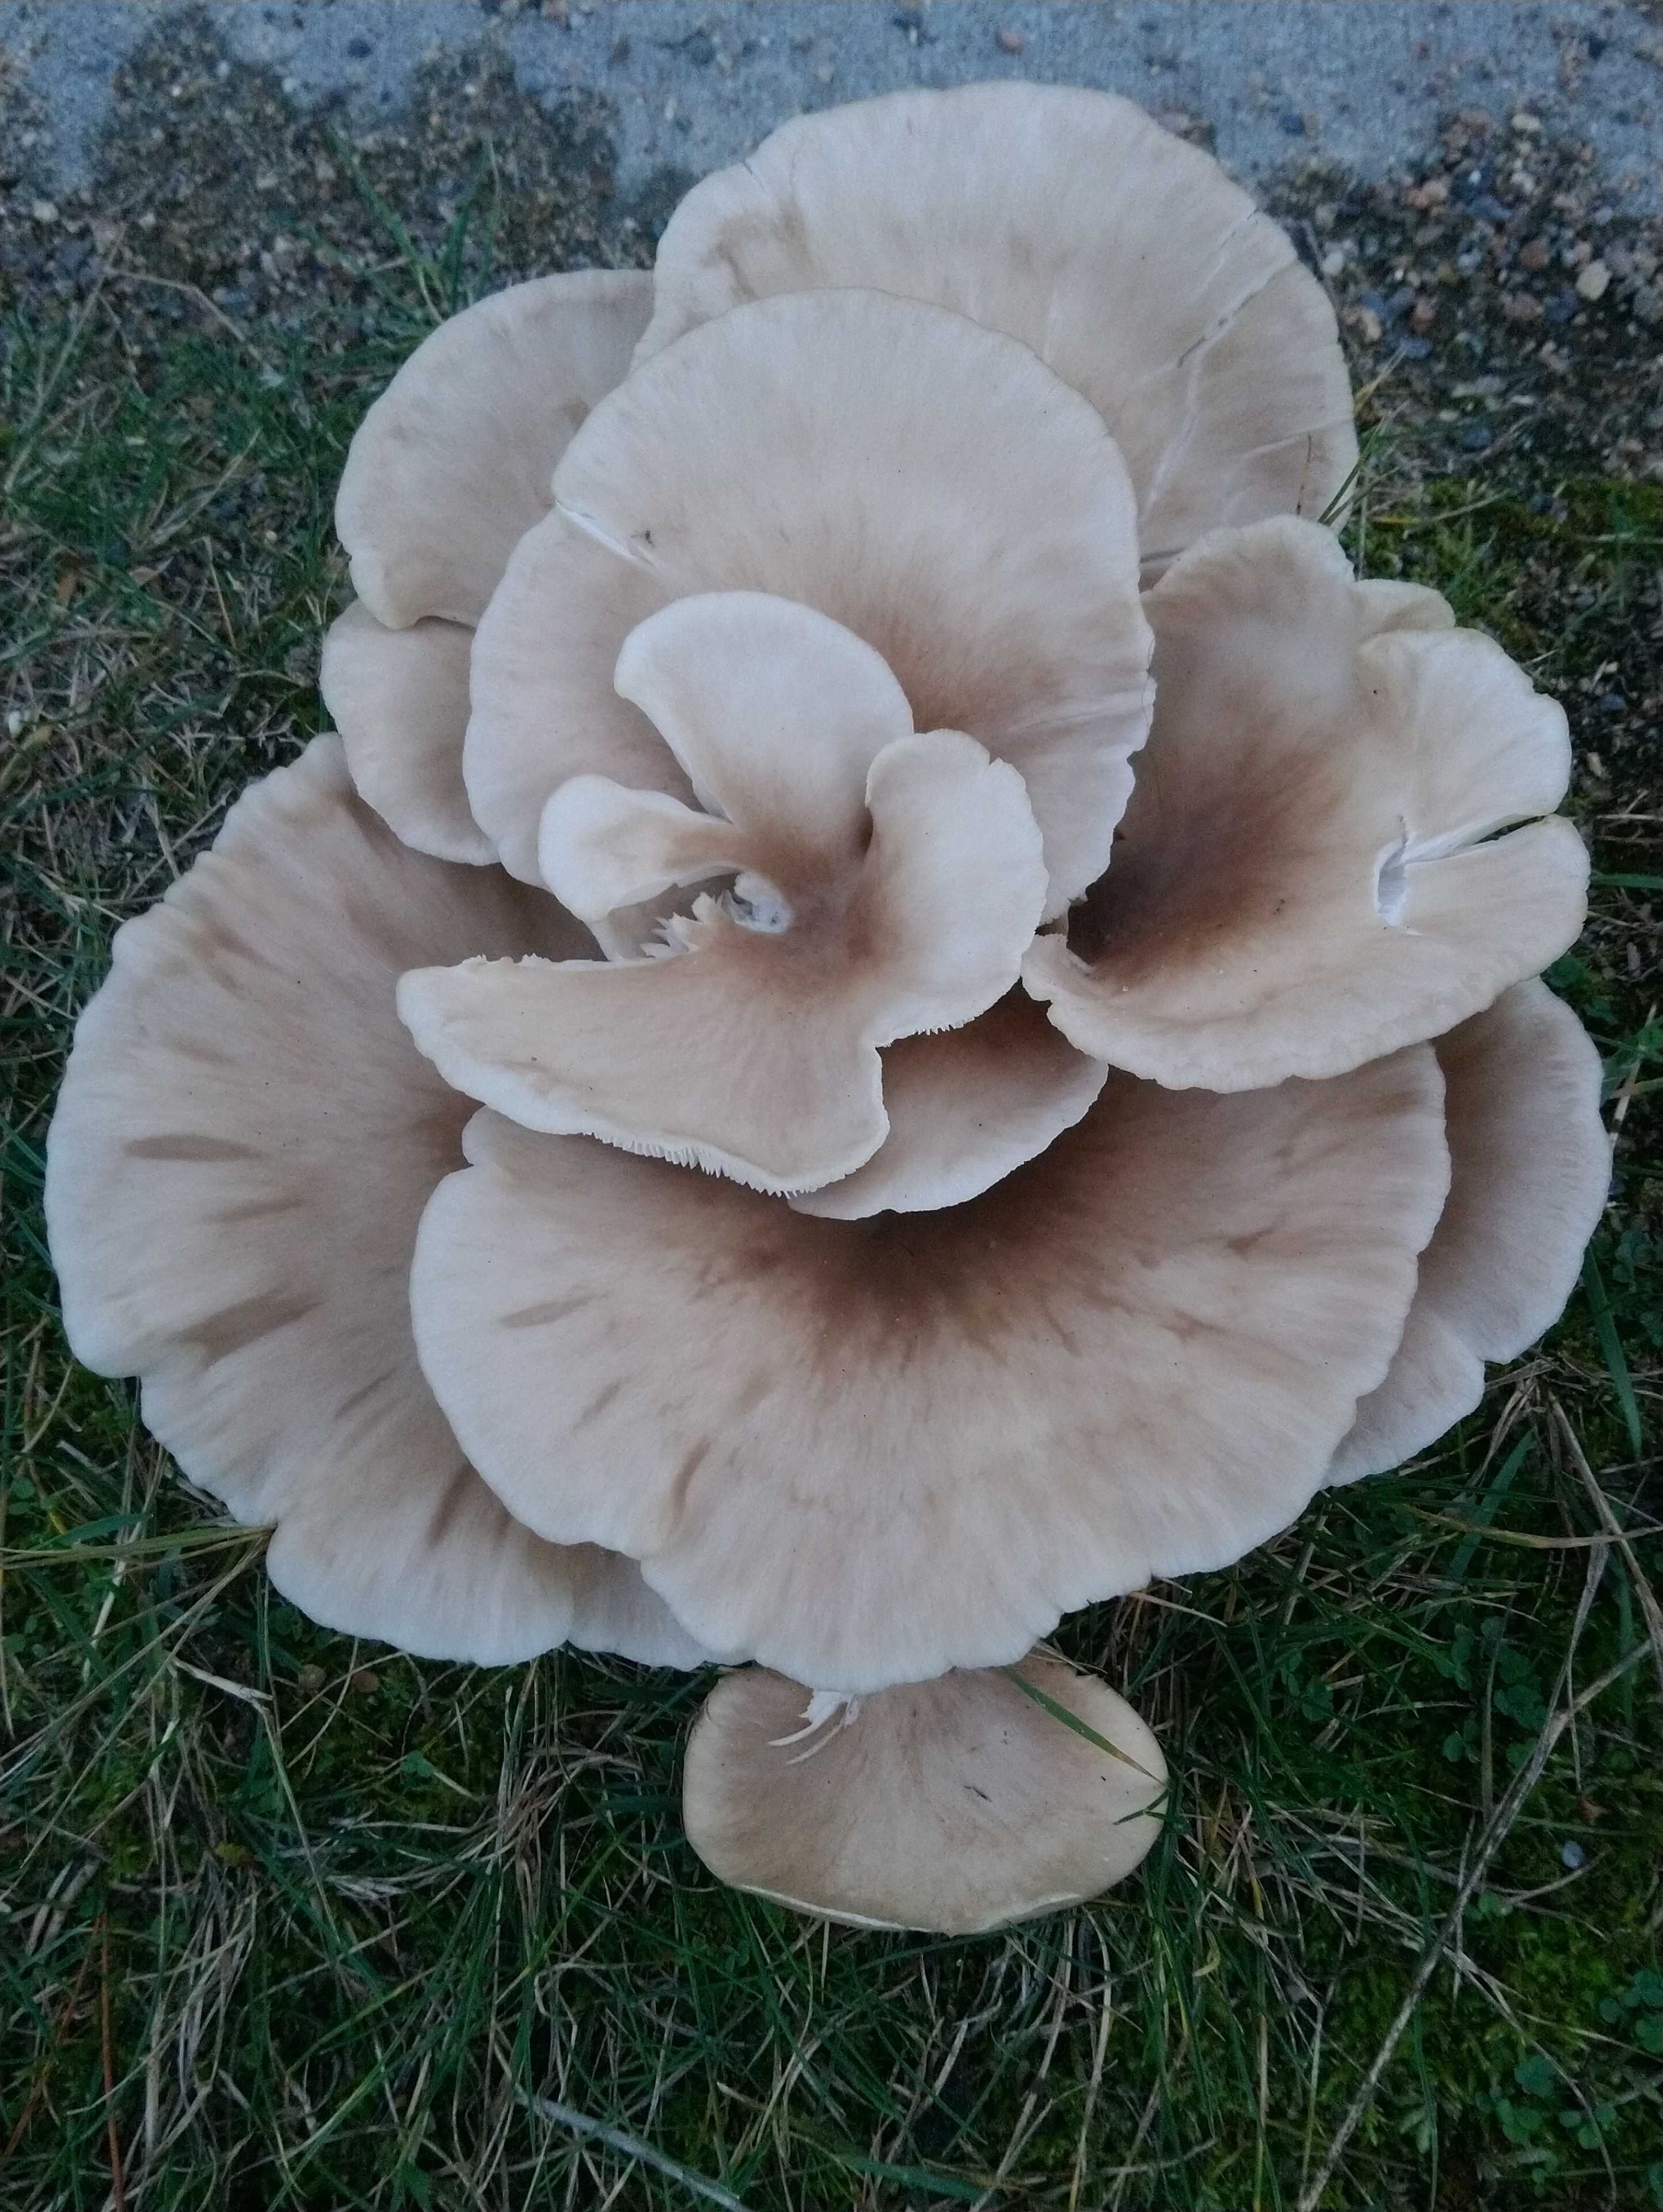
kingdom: Fungi
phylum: Basidiomycota
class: Agaricomycetes
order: Agaricales
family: Pleurotaceae
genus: Pleurotus
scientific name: Pleurotus pulmonarius
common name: sommer-østershat
